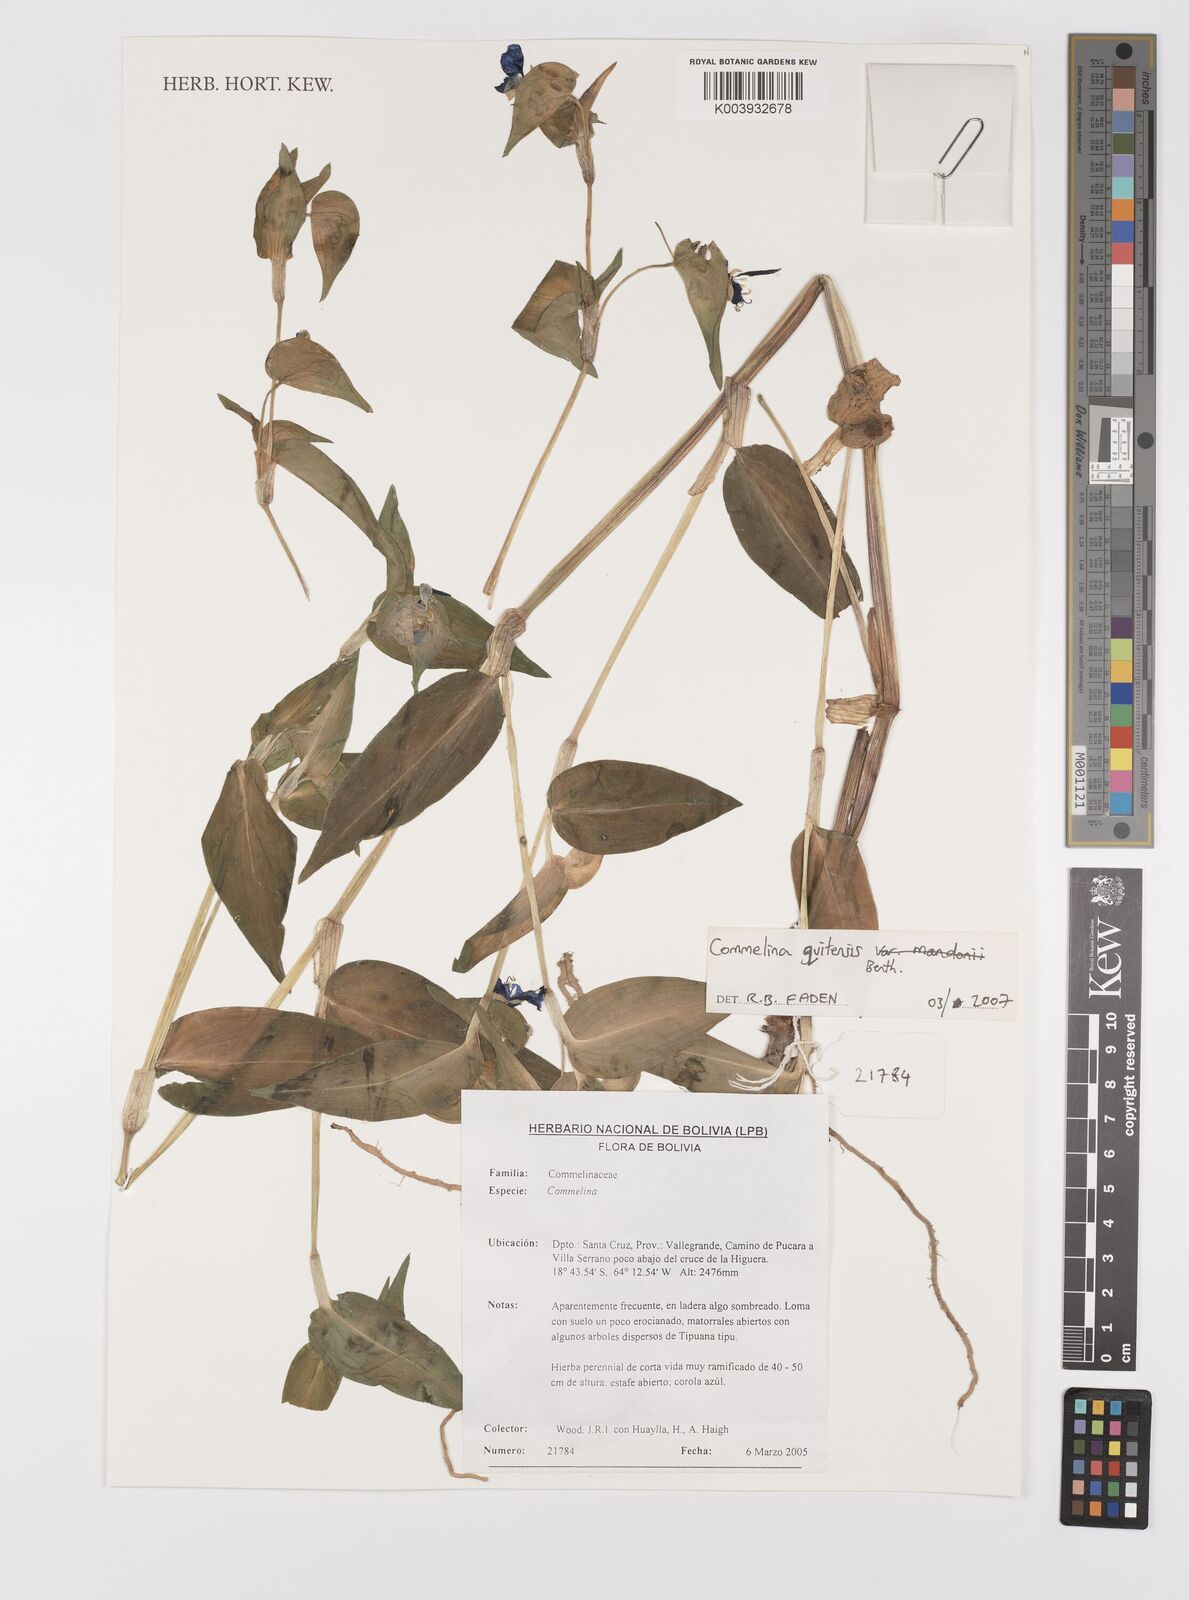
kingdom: Plantae
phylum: Tracheophyta
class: Liliopsida
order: Commelinales
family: Commelinaceae
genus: Commelina
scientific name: Commelina quitensis
